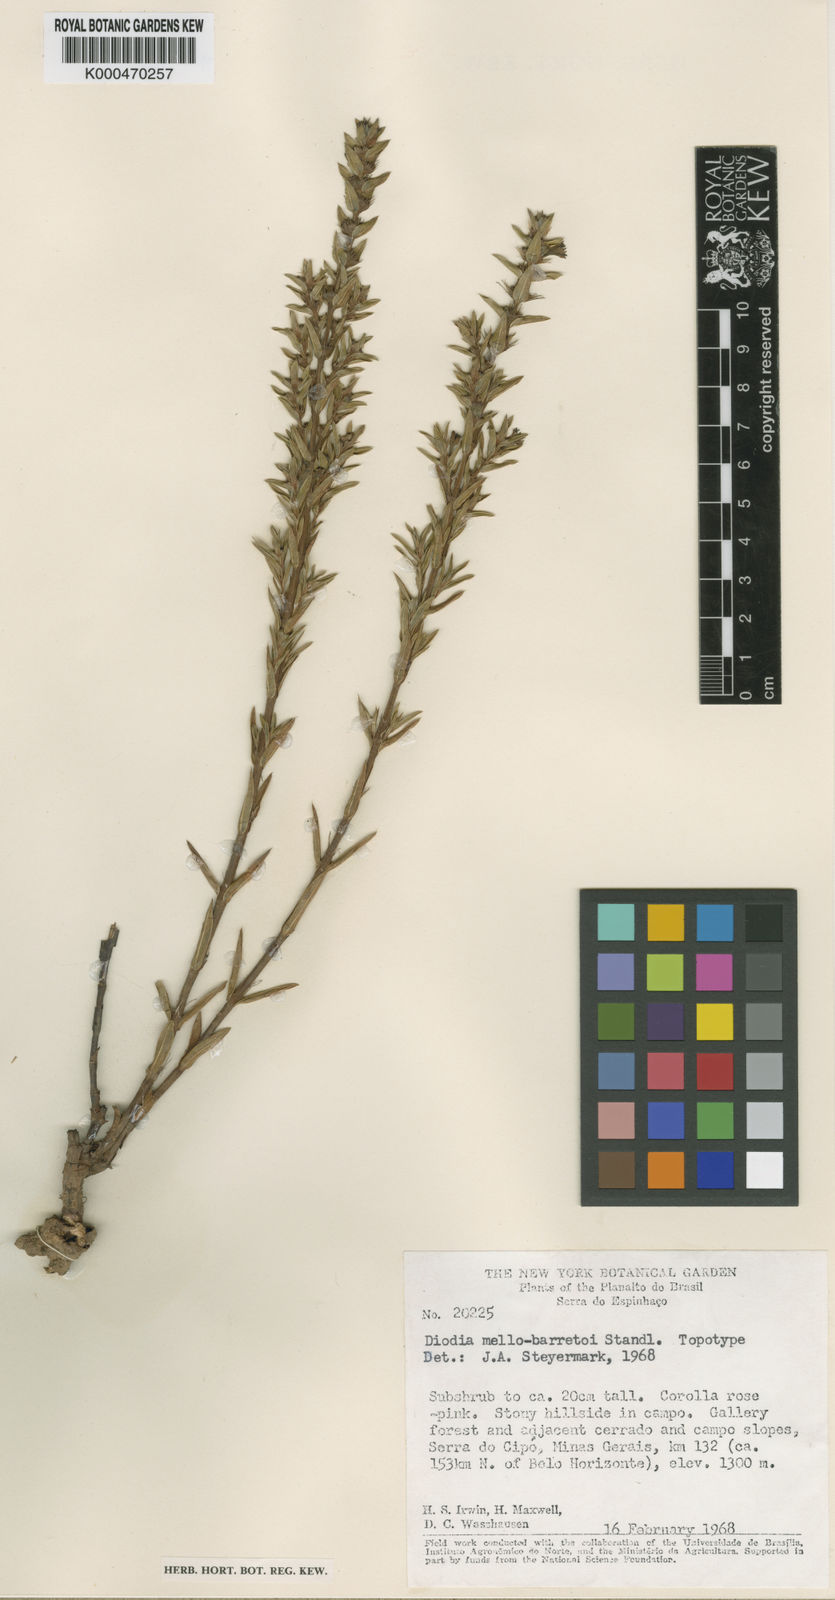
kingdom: Plantae
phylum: Tracheophyta
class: Magnoliopsida
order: Gentianales
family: Rubiaceae
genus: Hexasepalum
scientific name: Hexasepalum mello-barretoi
